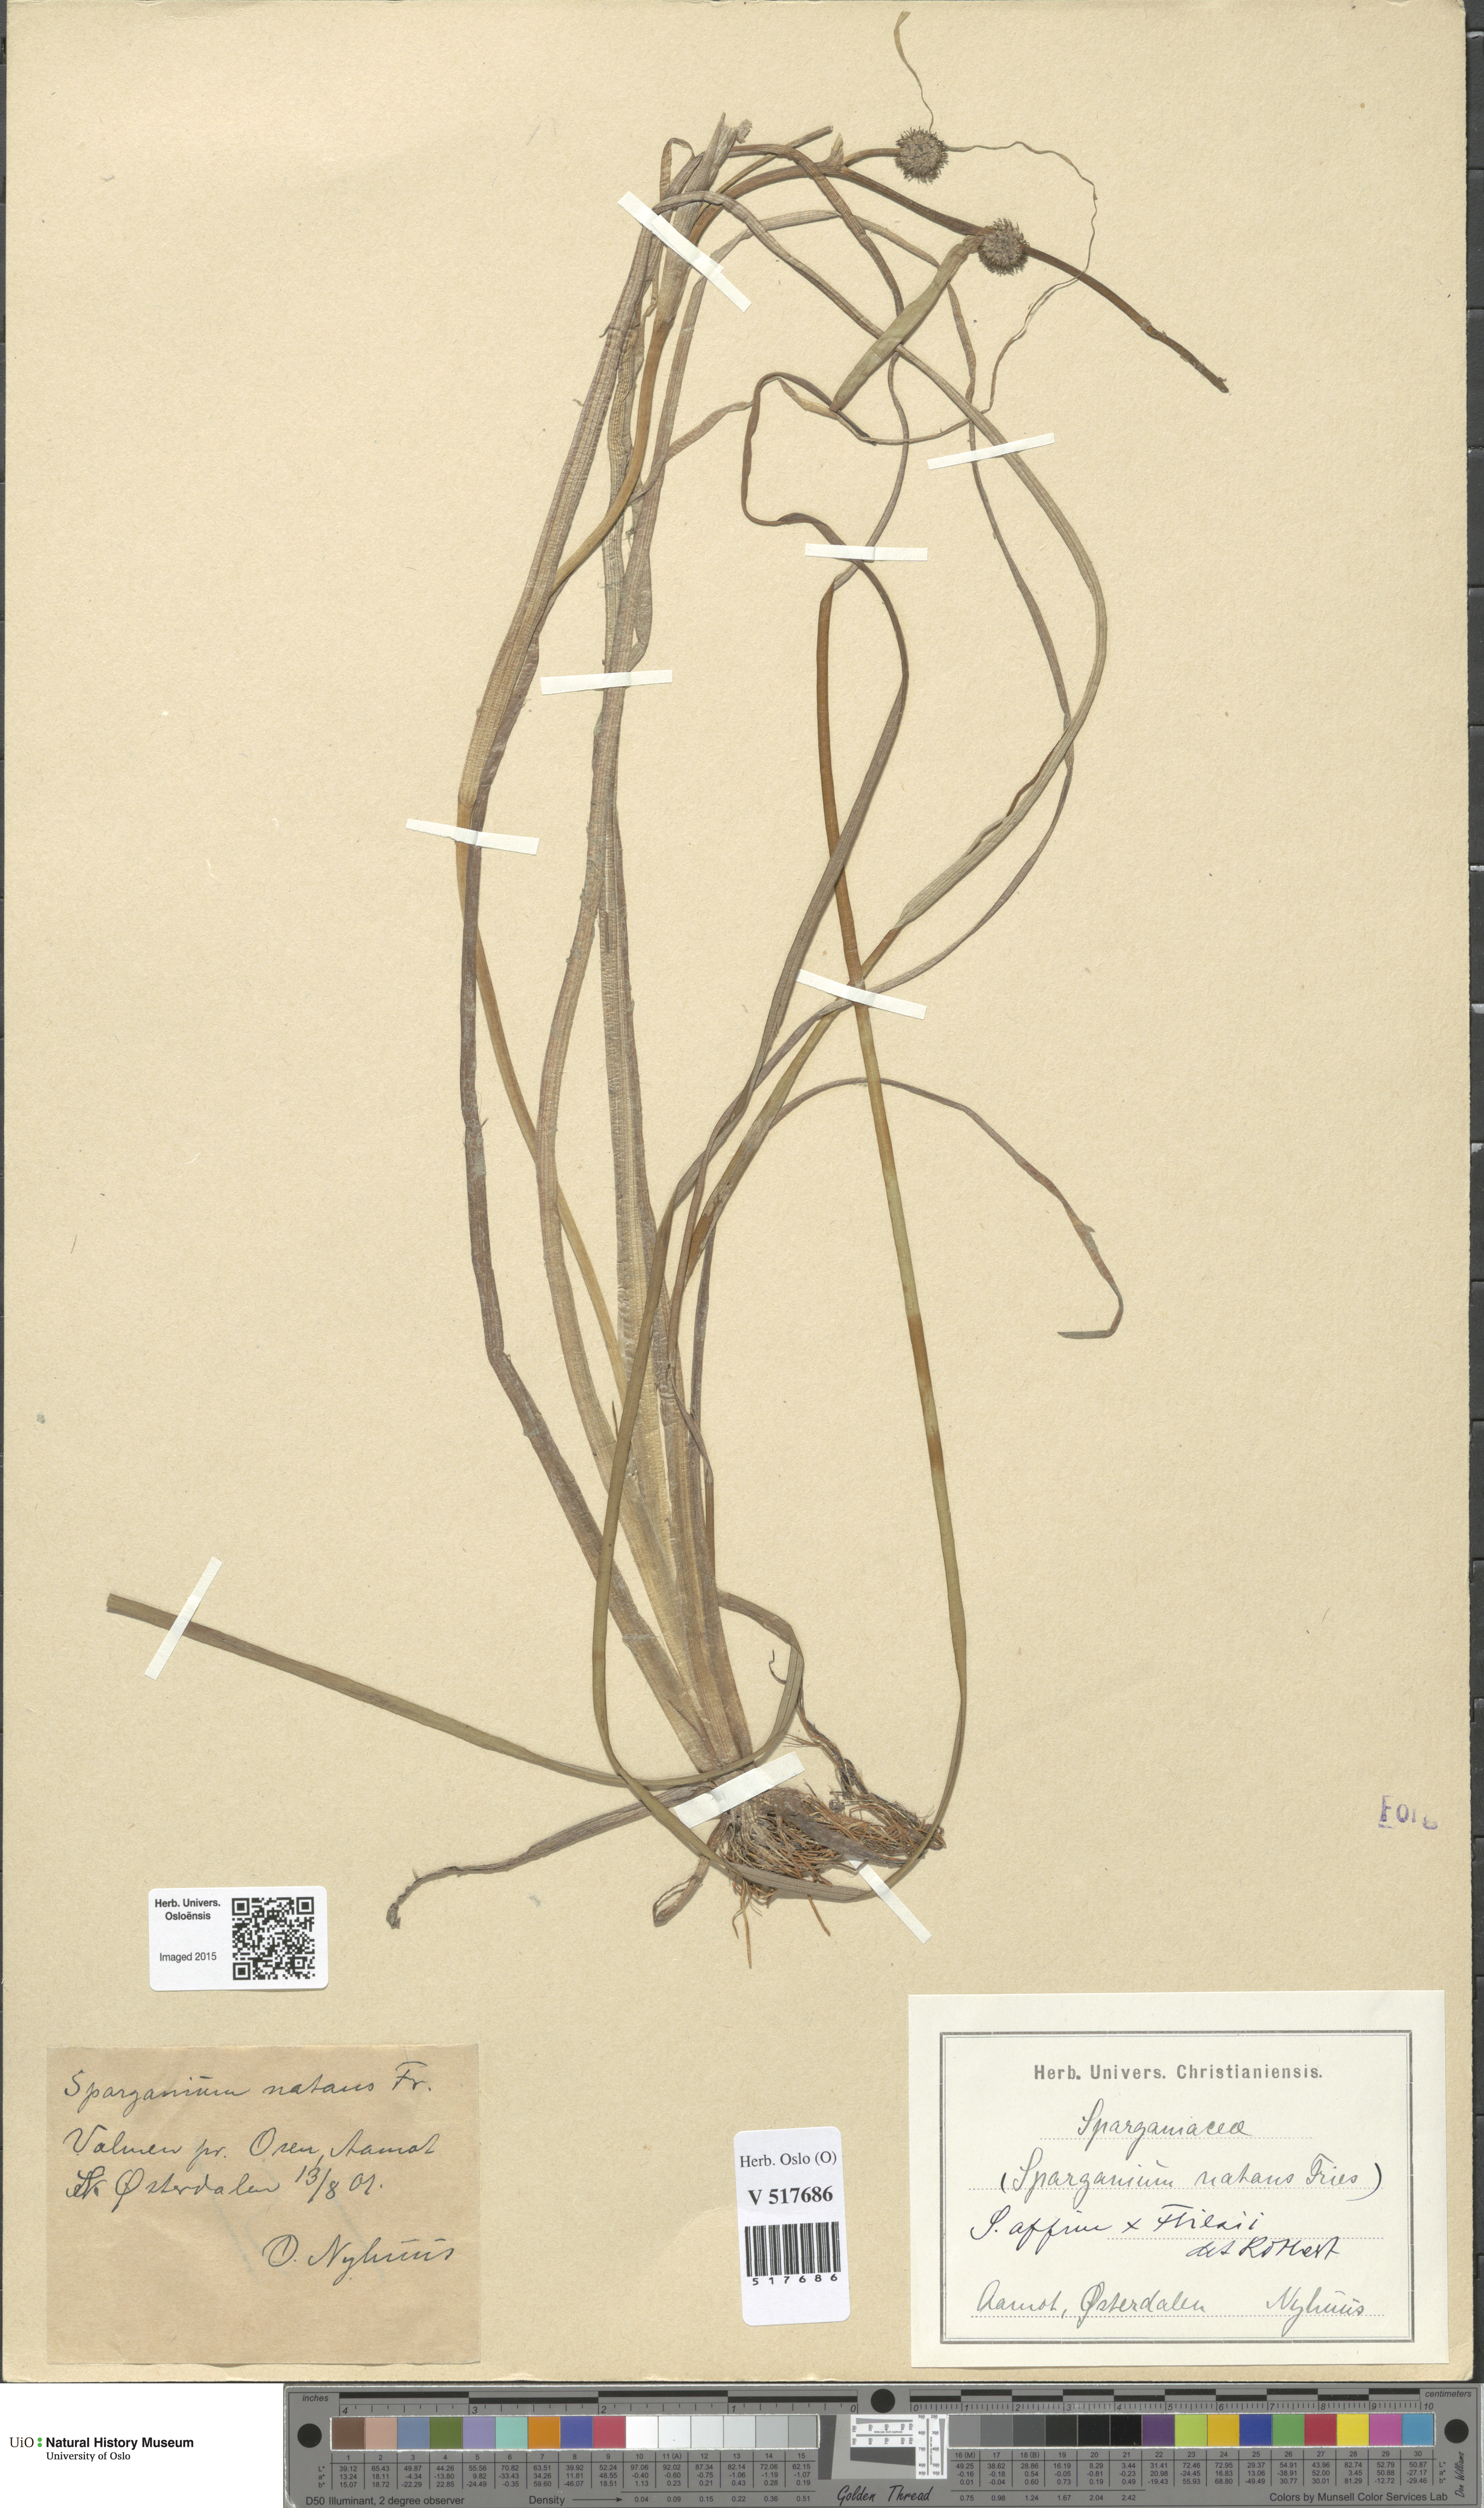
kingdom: Plantae
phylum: Tracheophyta
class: Liliopsida
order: Poales
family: Typhaceae
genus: Sparganium
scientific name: Sparganium
